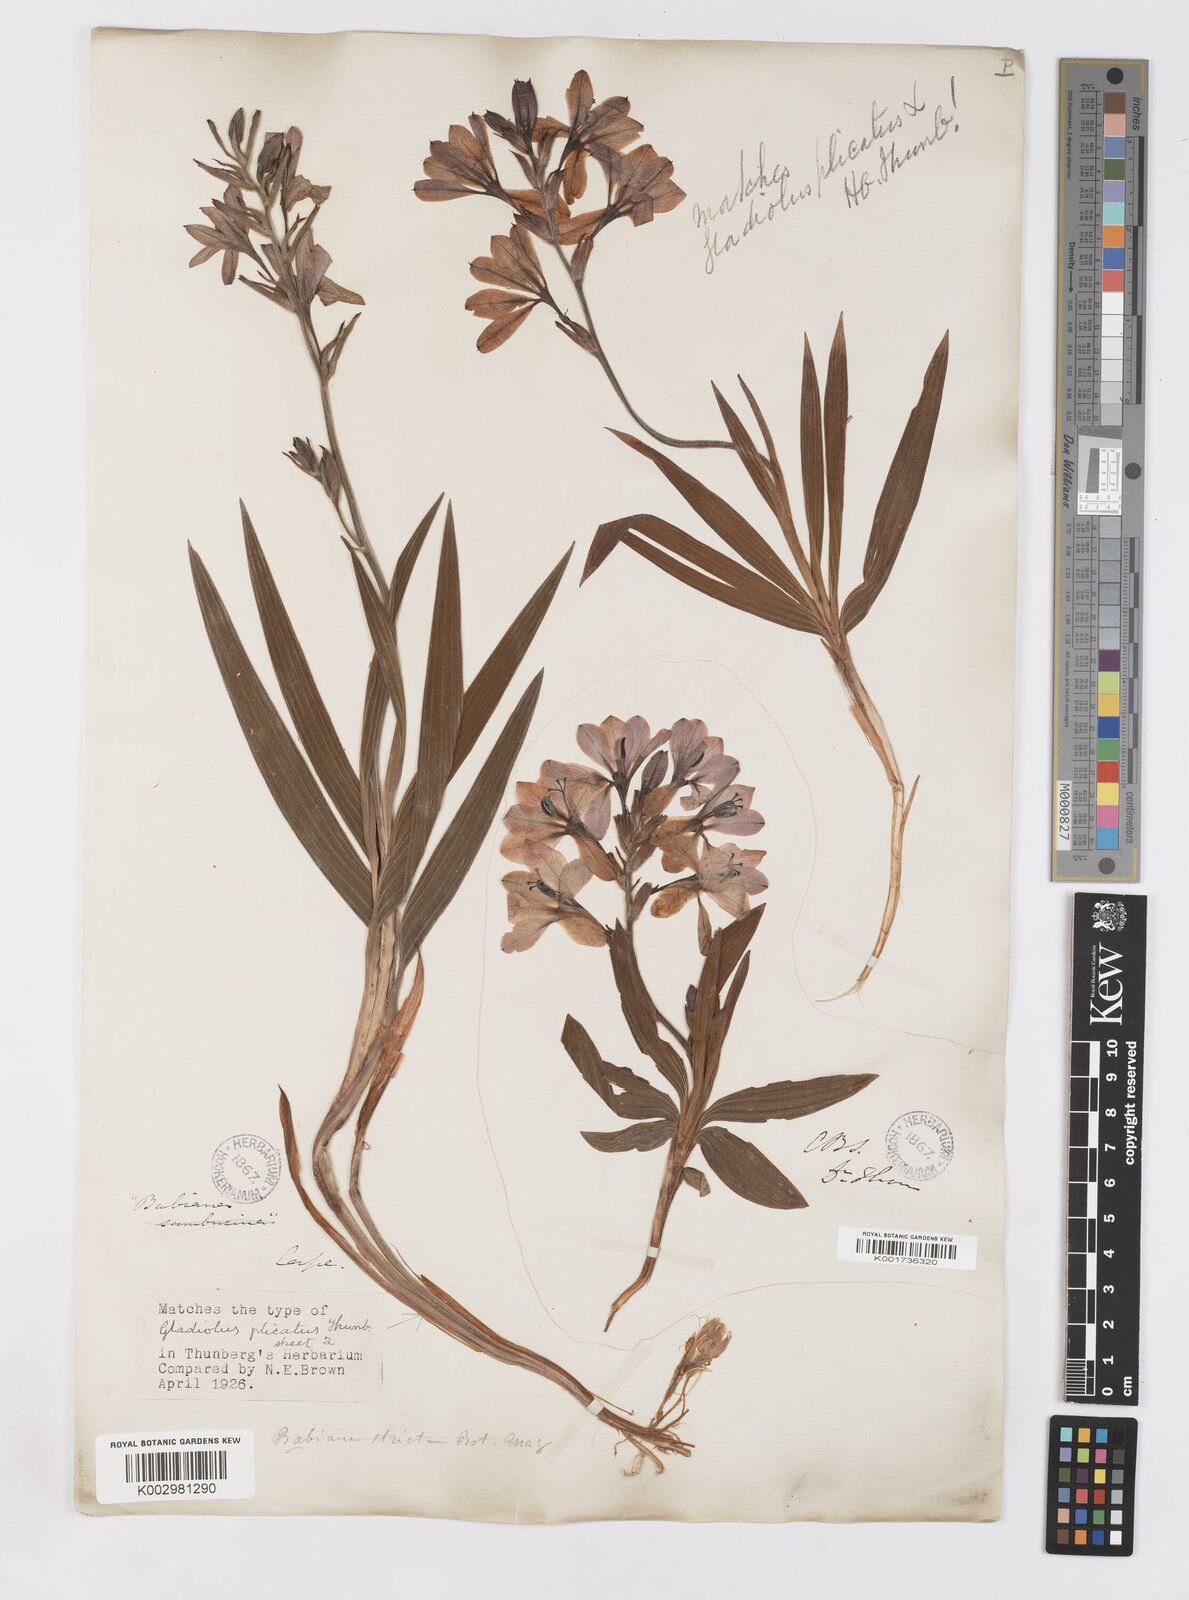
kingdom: Plantae
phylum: Tracheophyta
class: Liliopsida
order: Asparagales
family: Iridaceae
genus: Babiana
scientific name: Babiana nervosa
